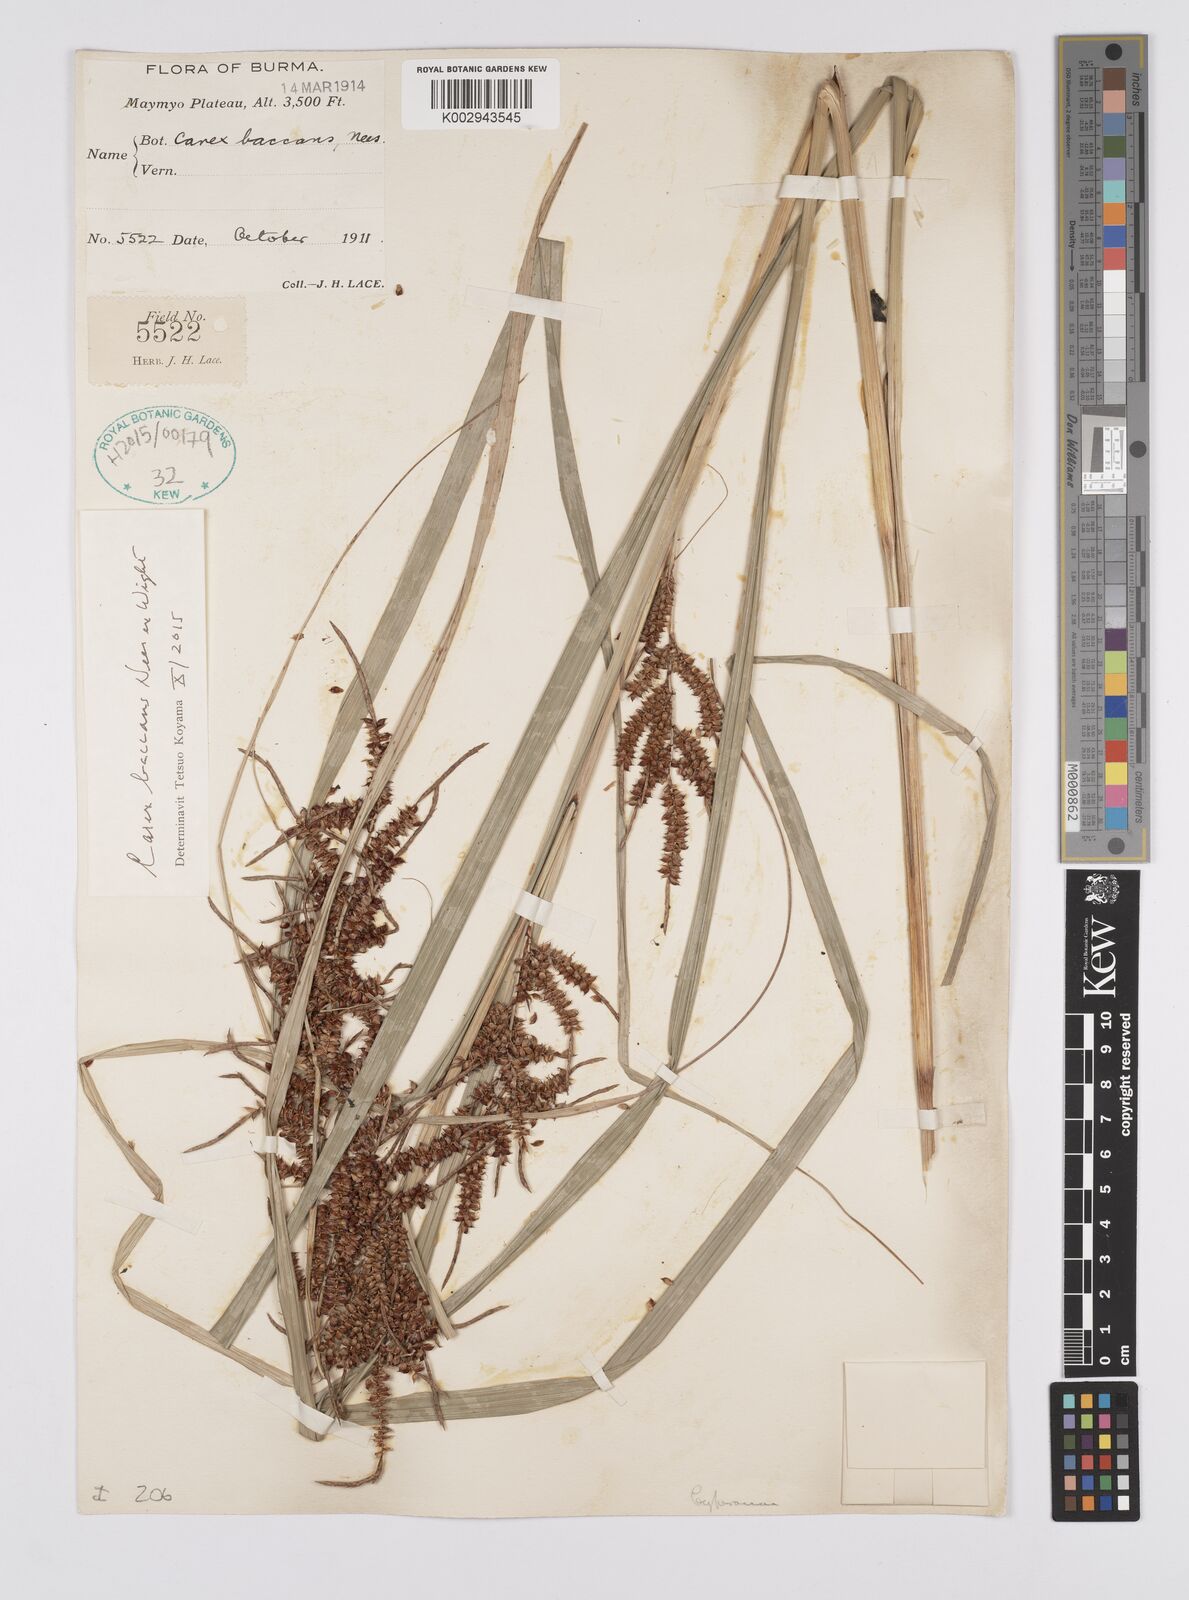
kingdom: Plantae
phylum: Tracheophyta
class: Liliopsida
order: Poales
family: Cyperaceae
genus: Carex
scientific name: Carex baccans
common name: Crimson seeded sedge
